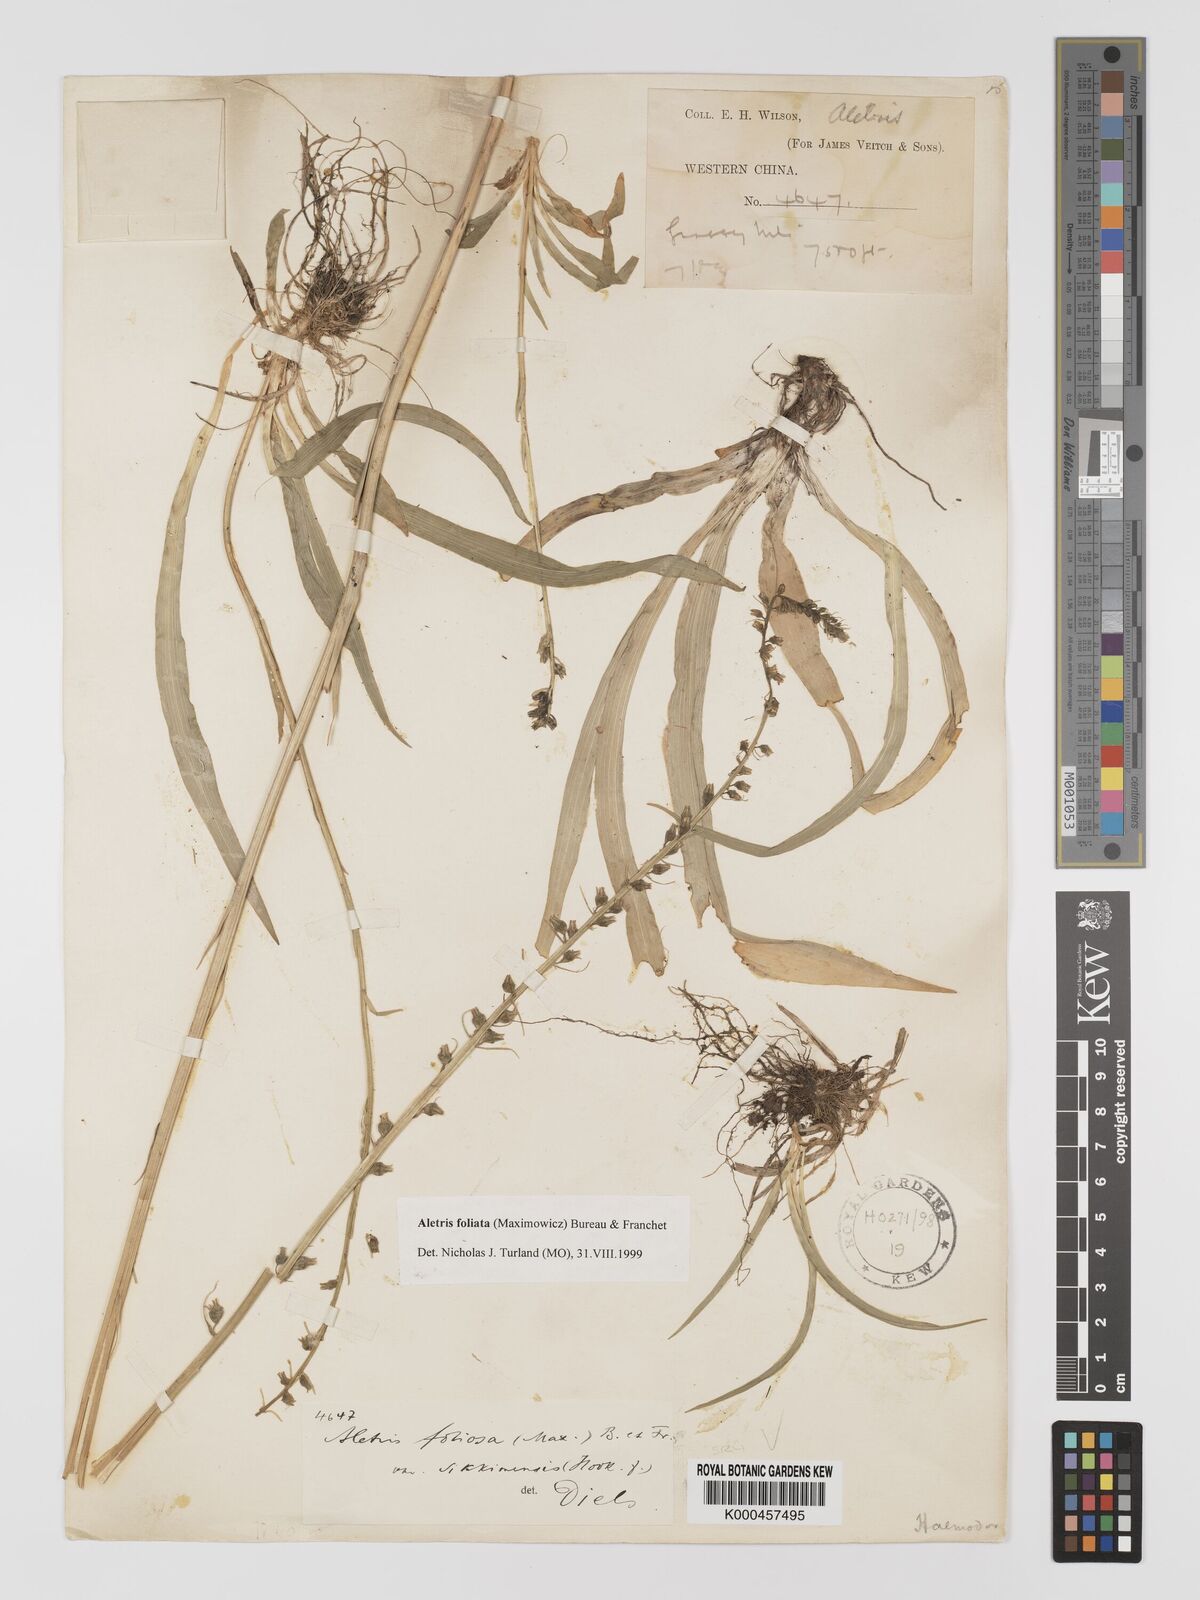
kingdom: Plantae
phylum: Tracheophyta
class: Liliopsida
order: Dioscoreales
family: Nartheciaceae
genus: Aletris
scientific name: Aletris
